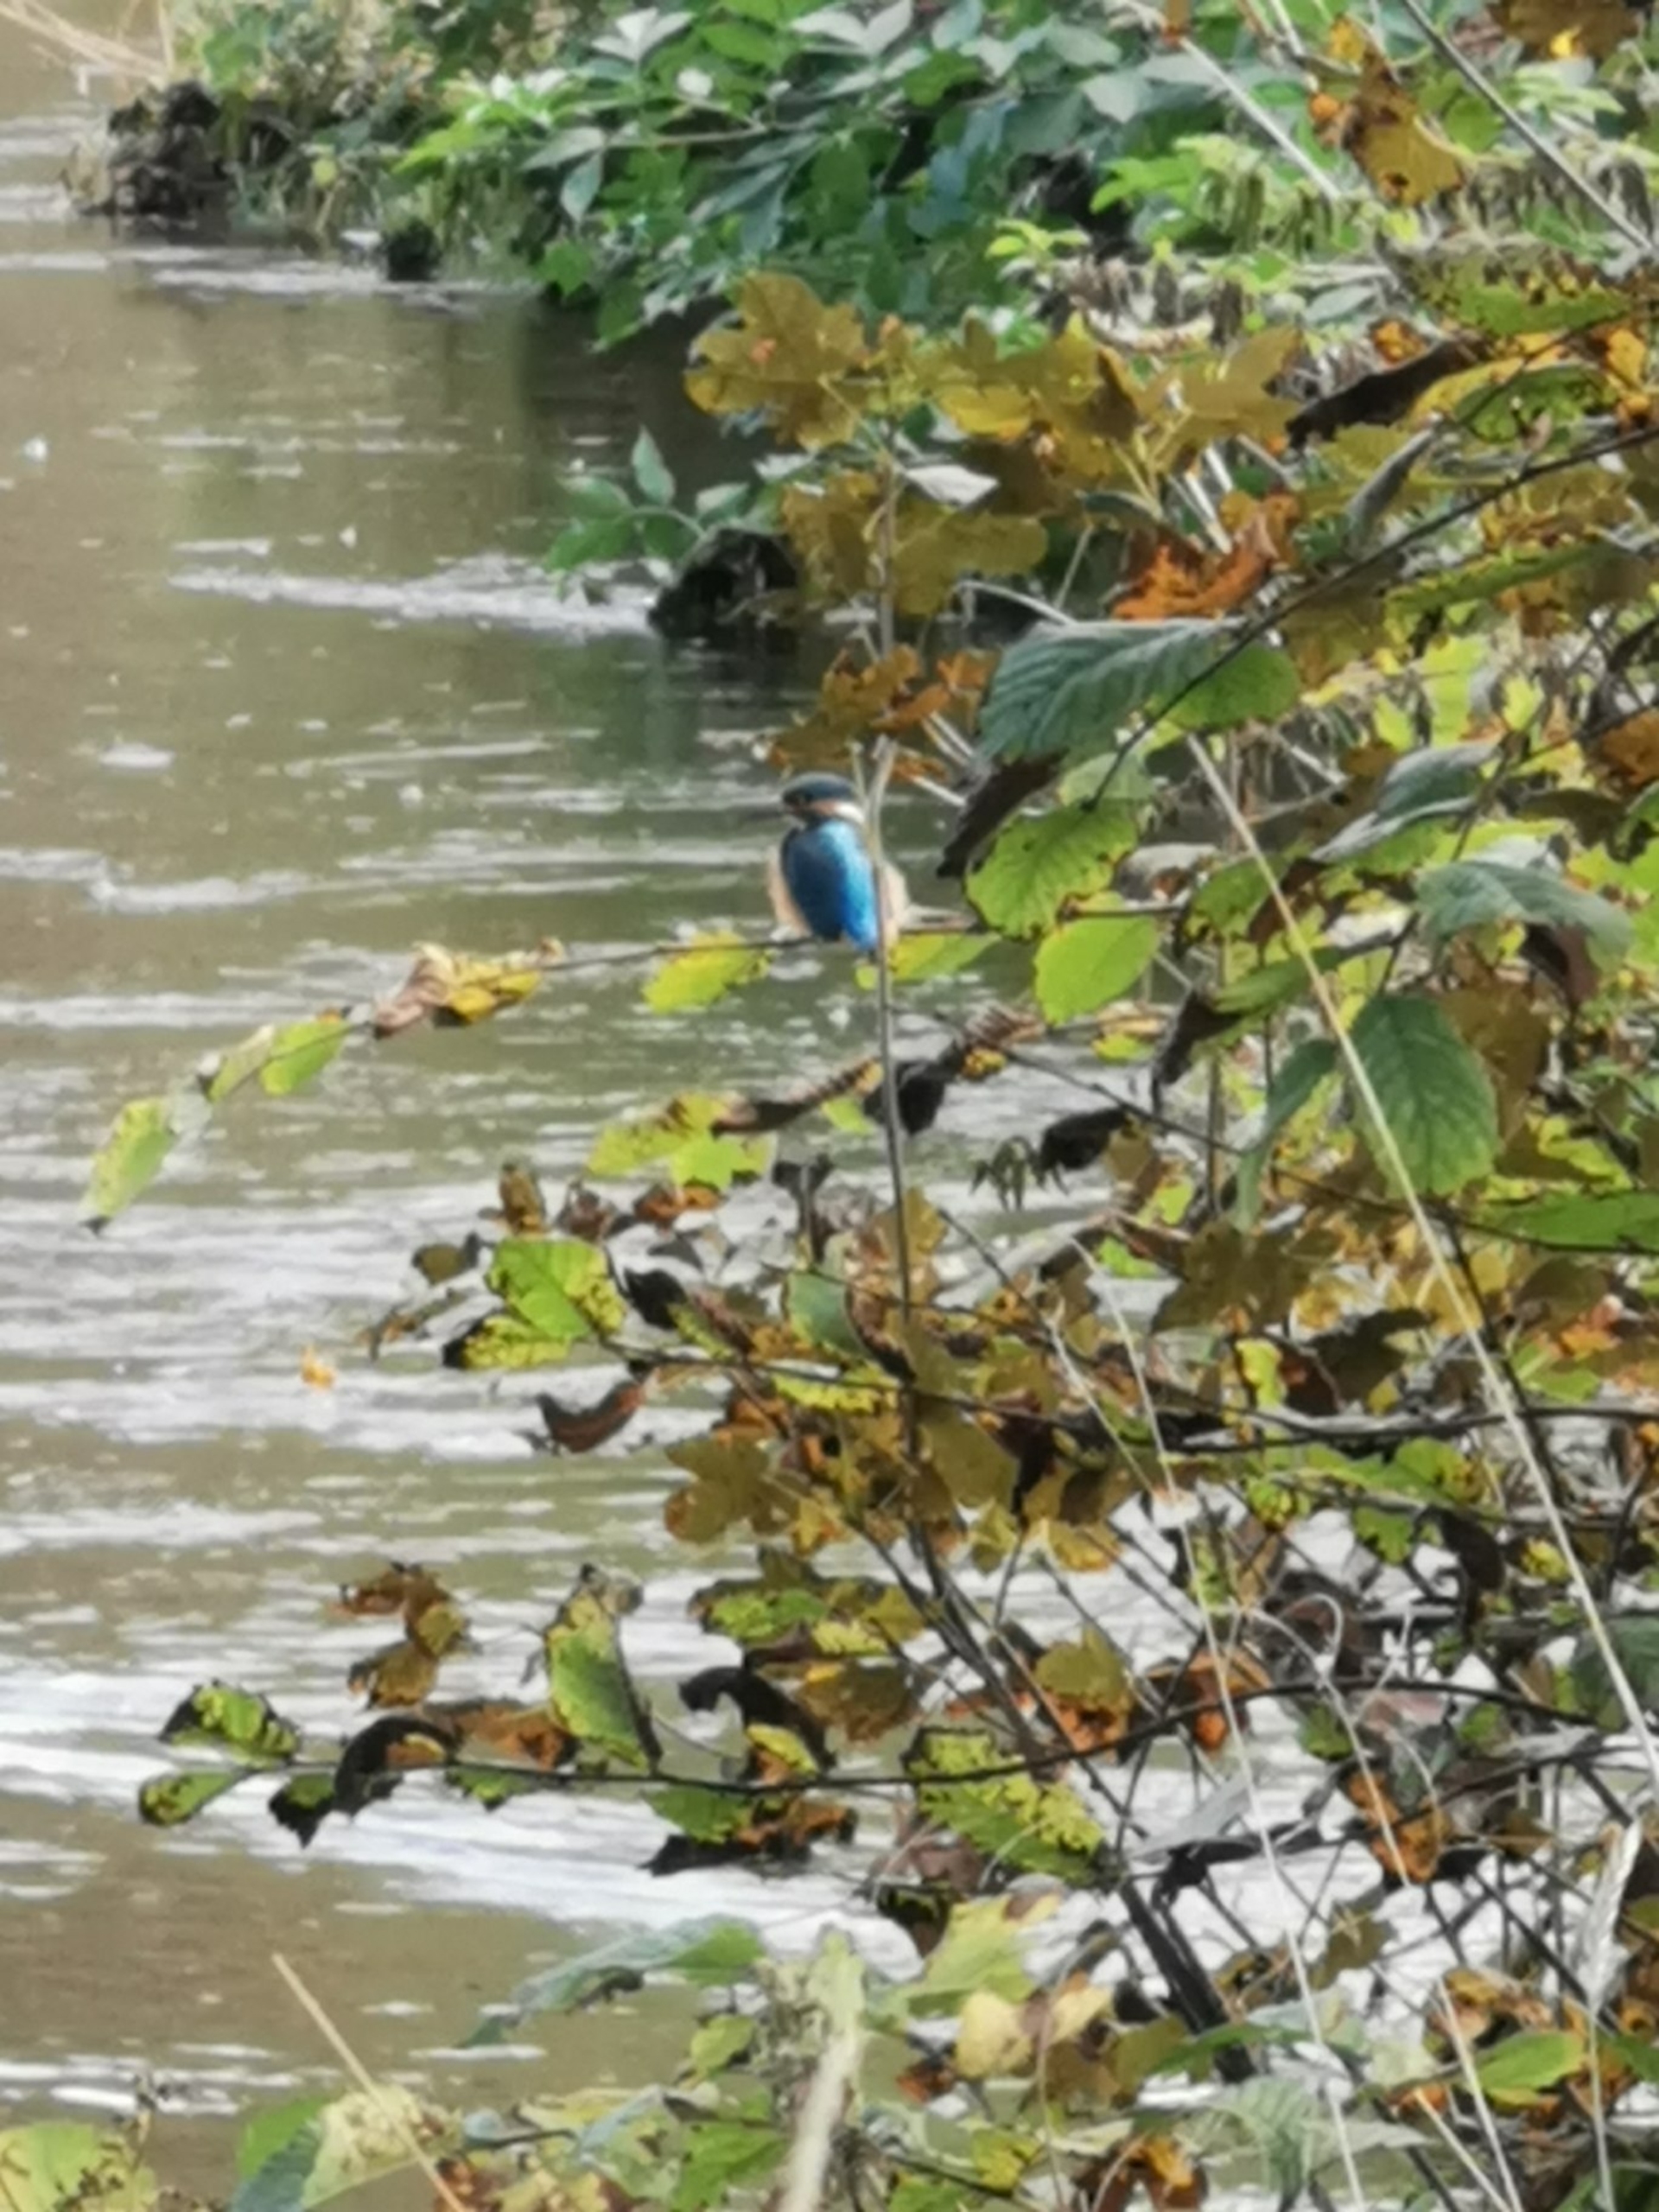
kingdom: Animalia
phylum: Chordata
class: Aves
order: Coraciiformes
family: Alcedinidae
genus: Alcedo
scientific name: Alcedo atthis
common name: Isfugl
